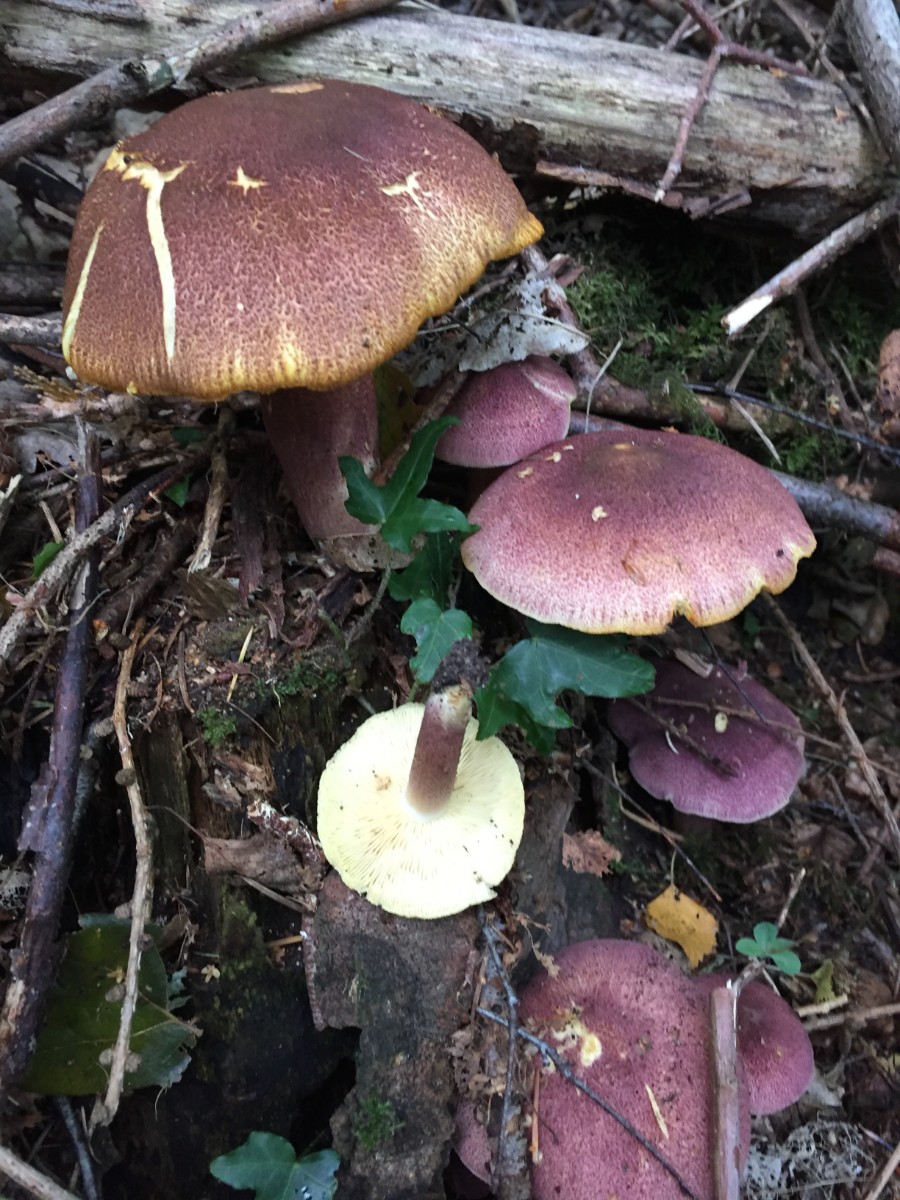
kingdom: Fungi
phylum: Basidiomycota
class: Agaricomycetes
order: Agaricales
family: Tricholomataceae
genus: Tricholomopsis
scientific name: Tricholomopsis rutilans
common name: purpur-væbnerhat
